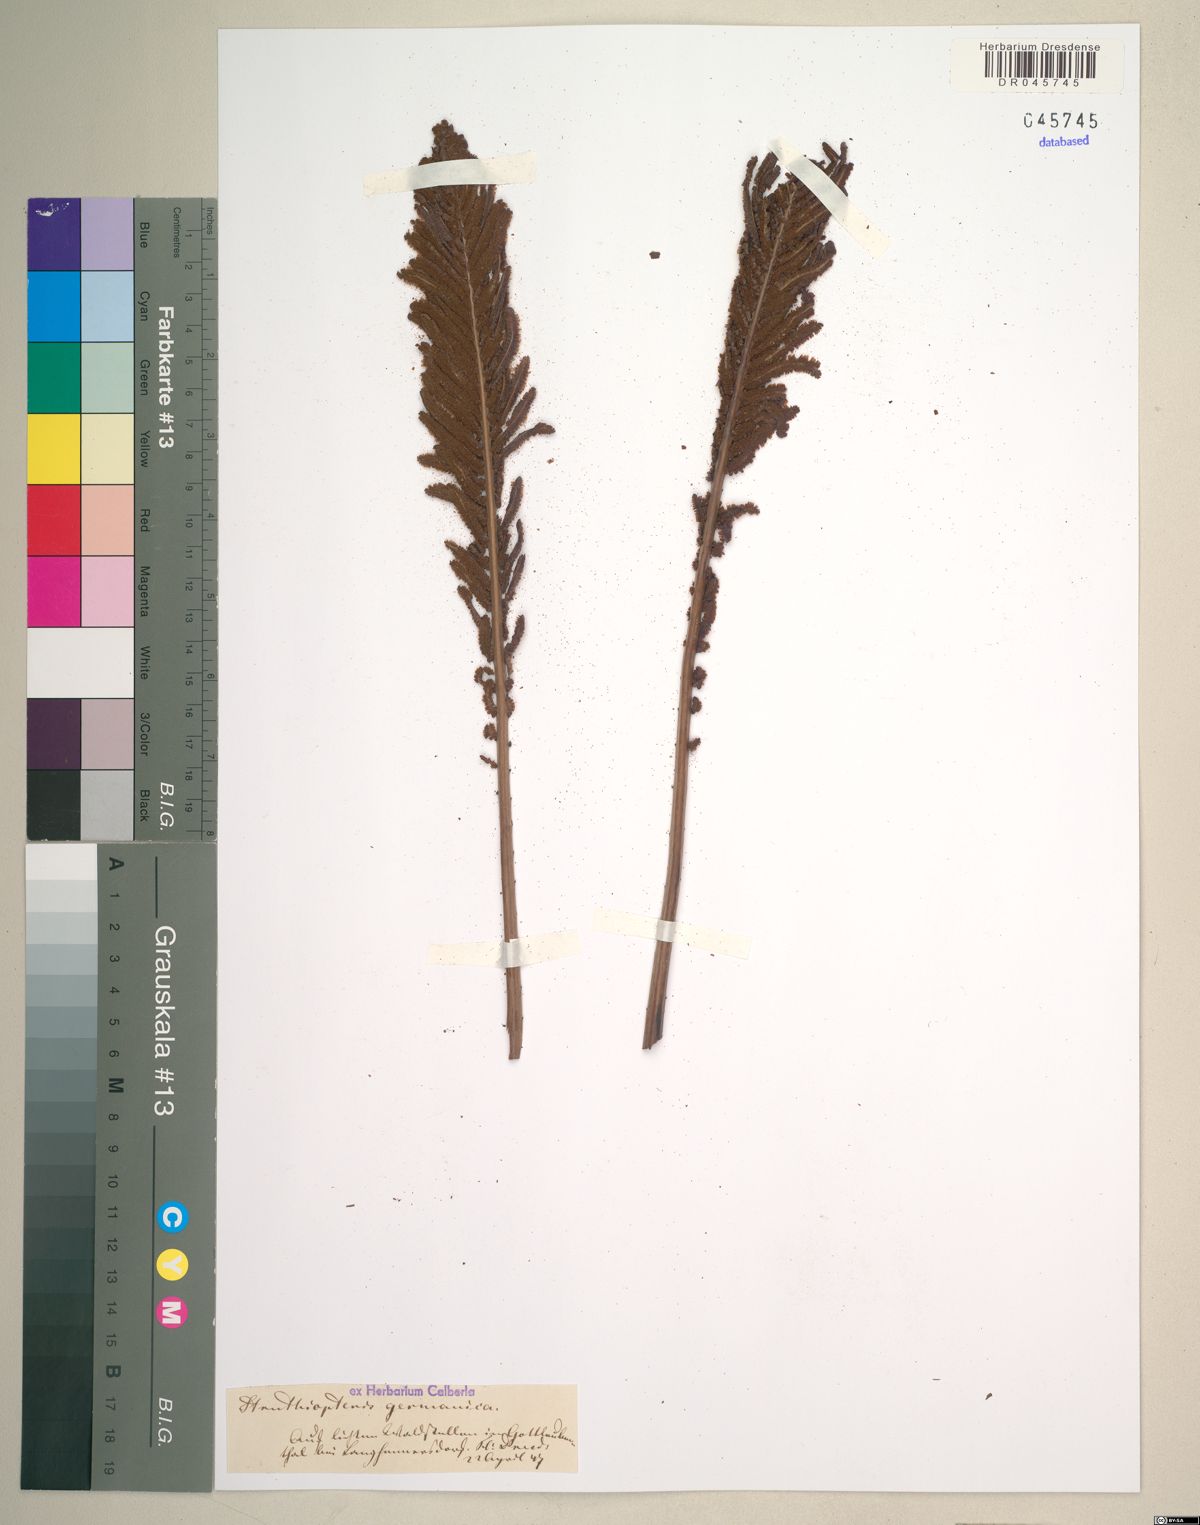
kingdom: Plantae
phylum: Tracheophyta
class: Polypodiopsida
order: Polypodiales
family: Onocleaceae
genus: Matteuccia
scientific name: Matteuccia struthiopteris
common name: Ostrich fern
